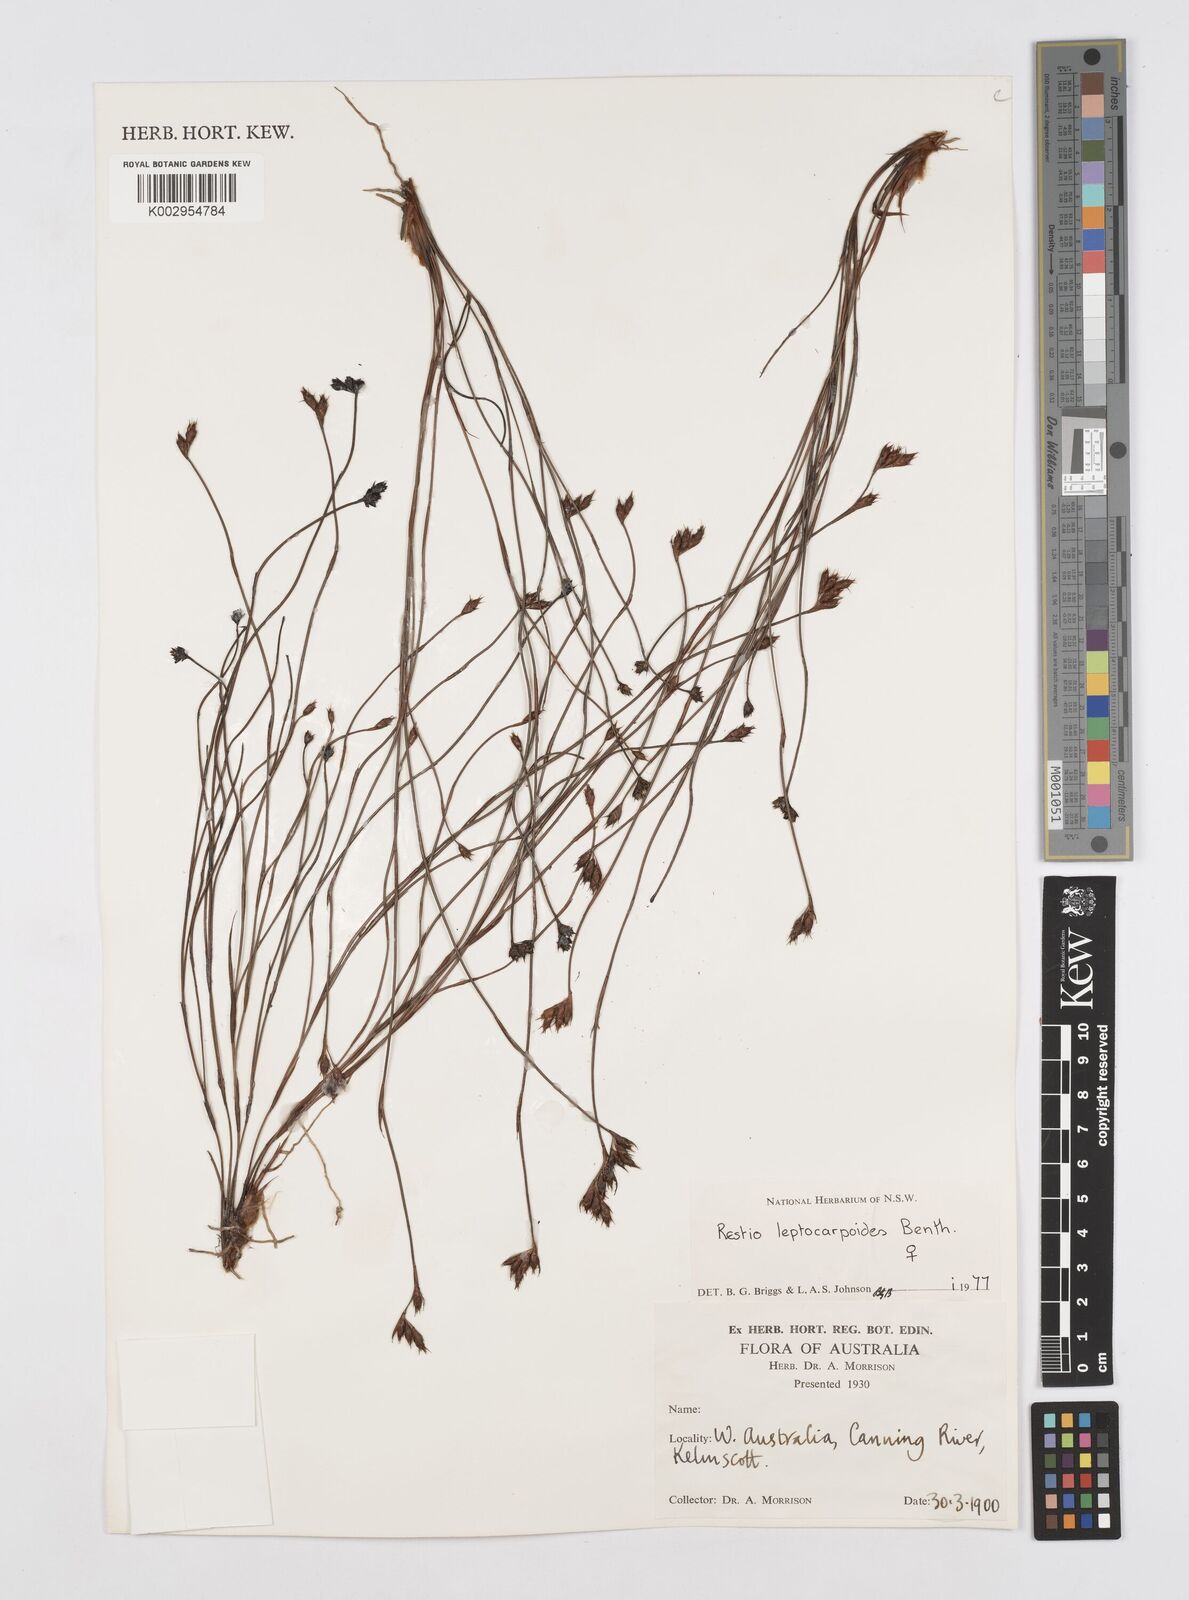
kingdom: Plantae
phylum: Tracheophyta
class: Liliopsida
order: Poales
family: Restionaceae
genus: Cytogonidium
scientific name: Cytogonidium leptocarpoides
